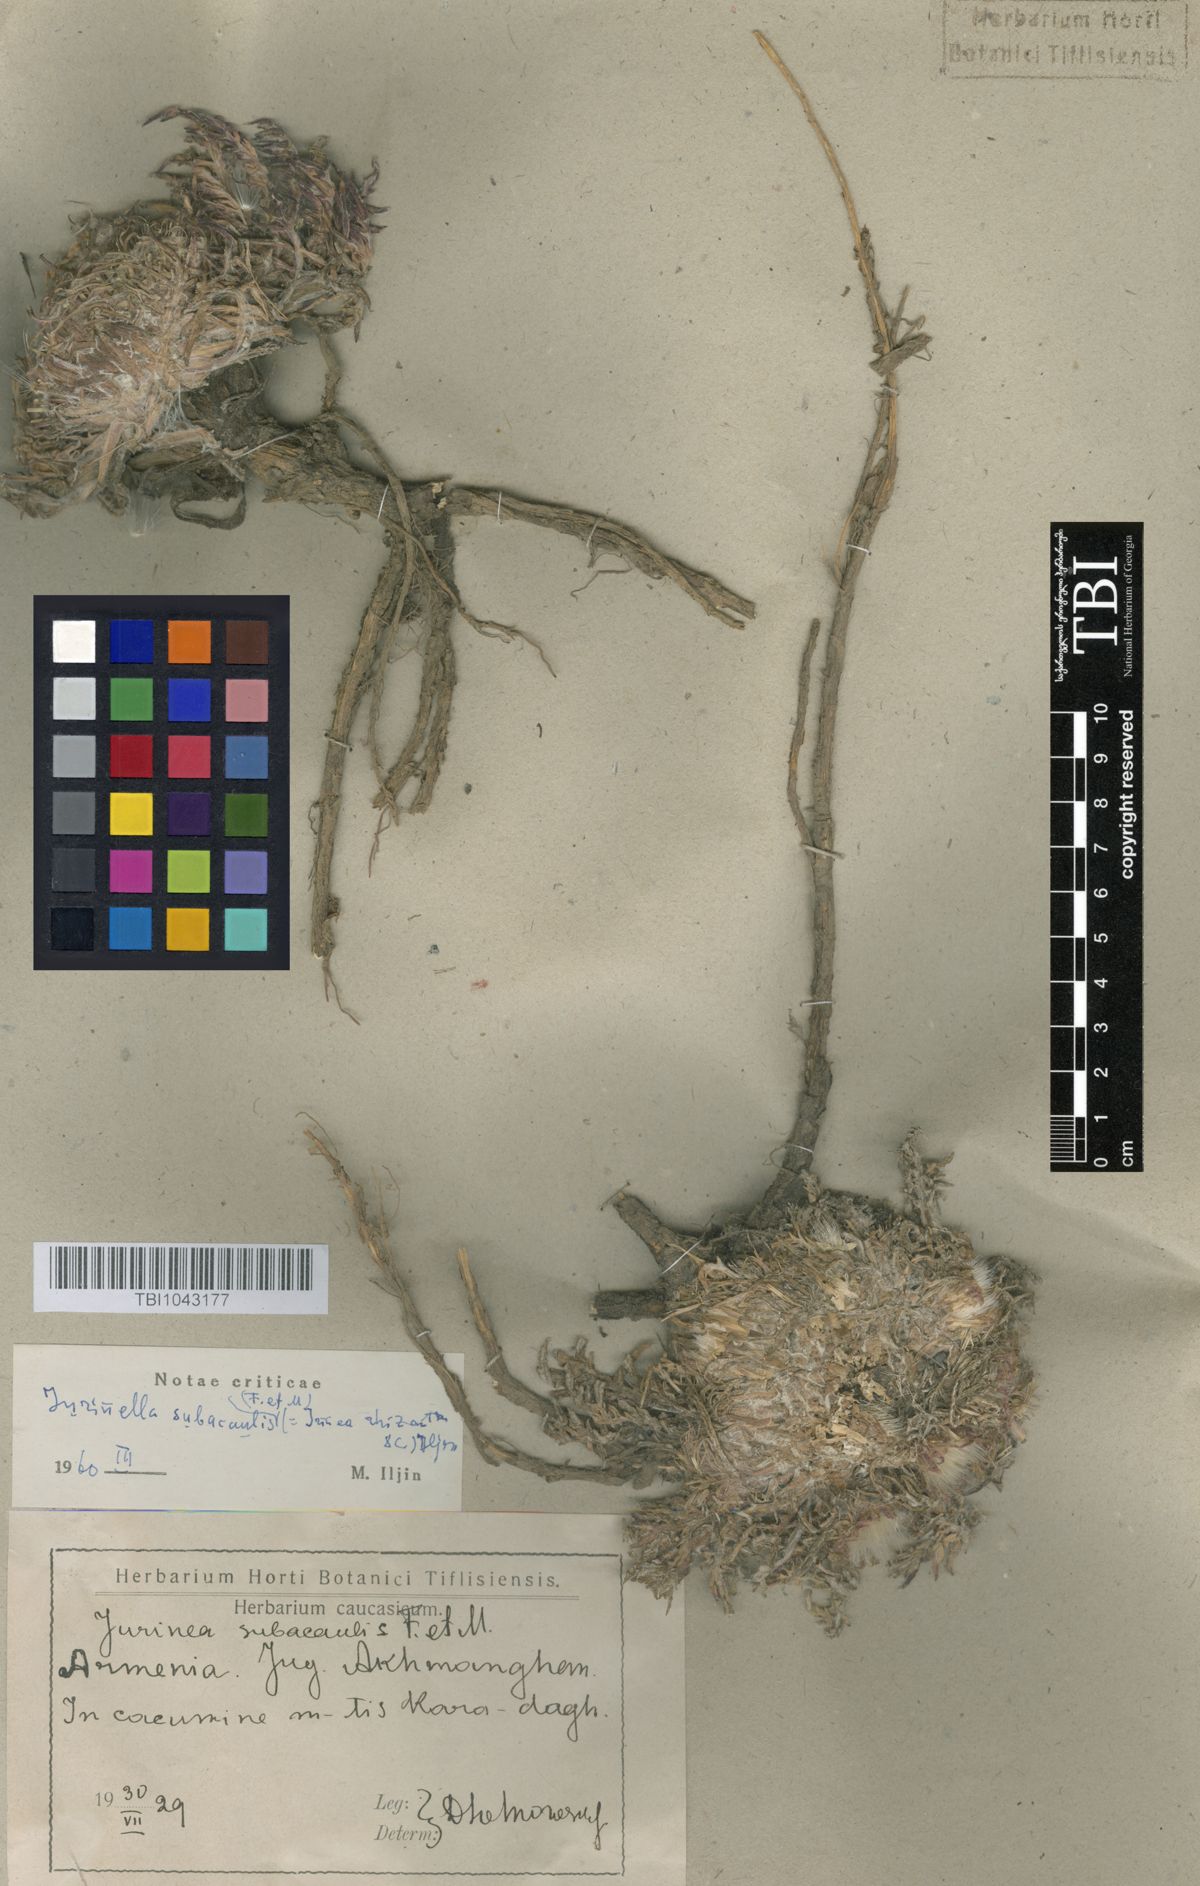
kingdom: Plantae
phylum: Tracheophyta
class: Magnoliopsida
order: Asterales
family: Asteraceae
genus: Jurinea
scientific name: Jurinea moschus
